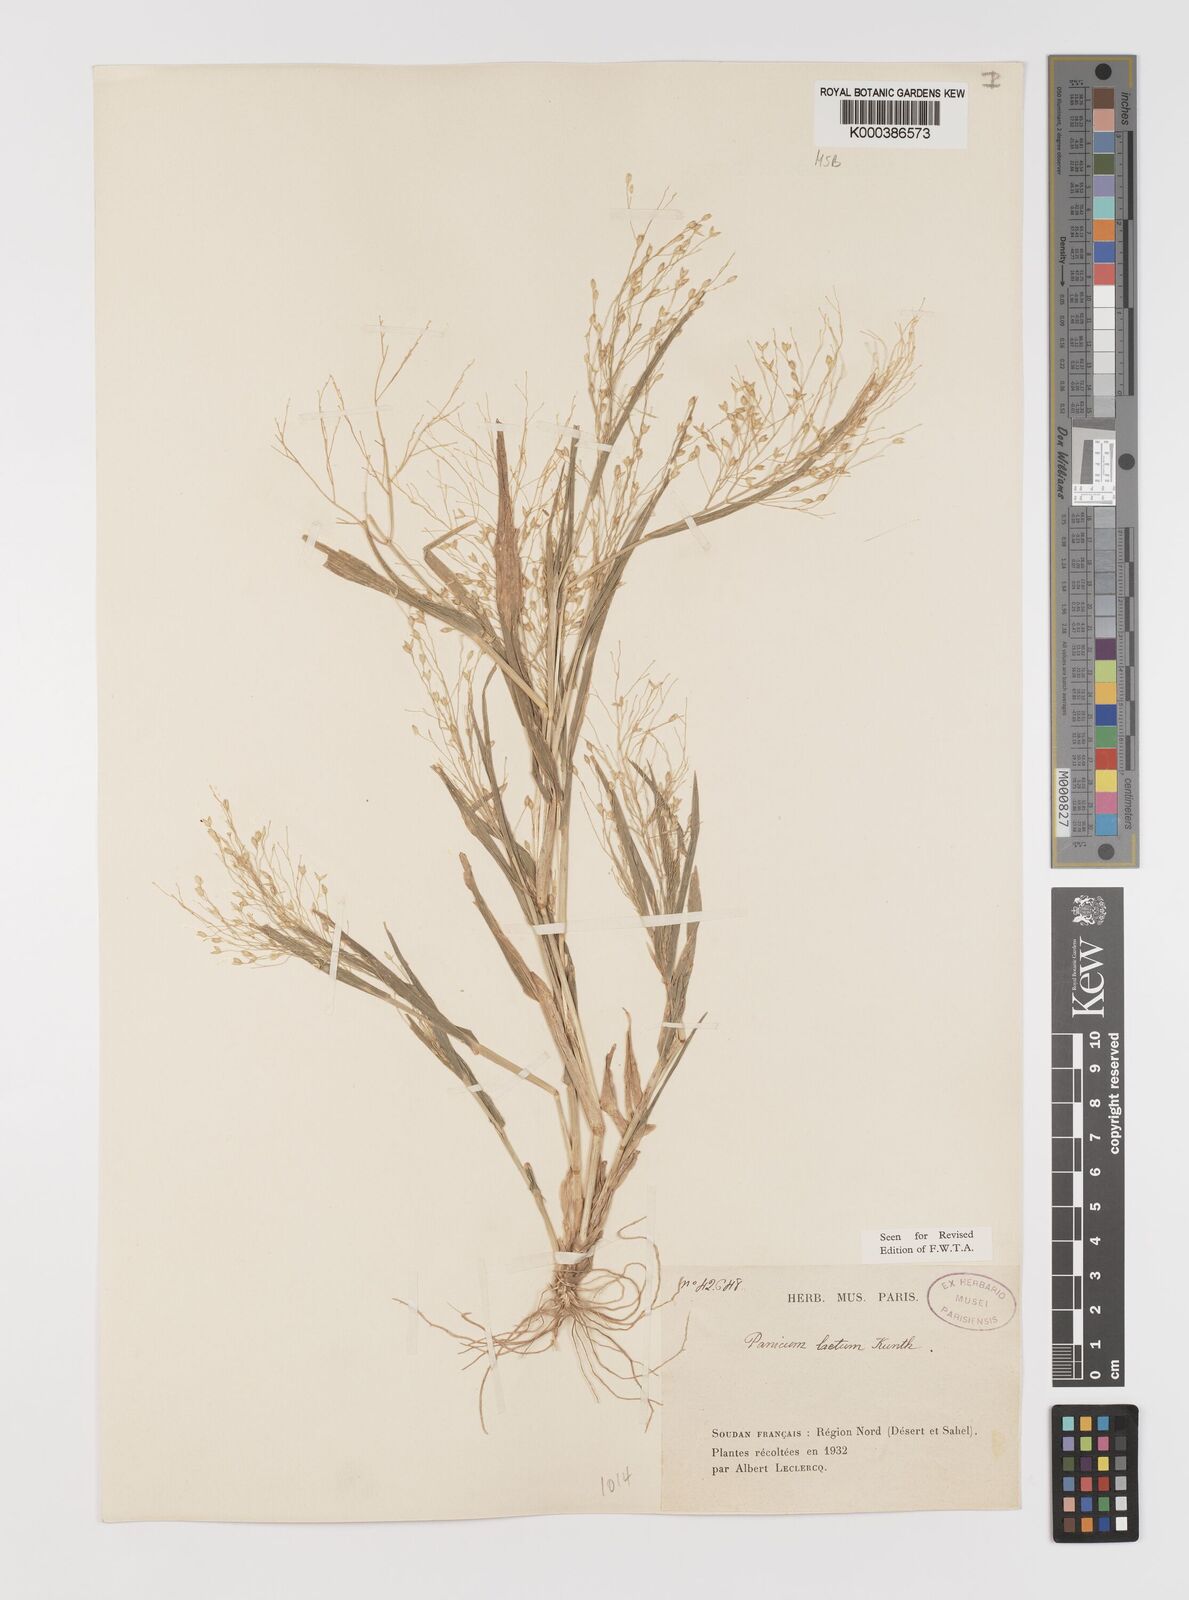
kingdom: Plantae
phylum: Tracheophyta
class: Liliopsida
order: Poales
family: Poaceae
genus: Panicum
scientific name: Panicum laetum
